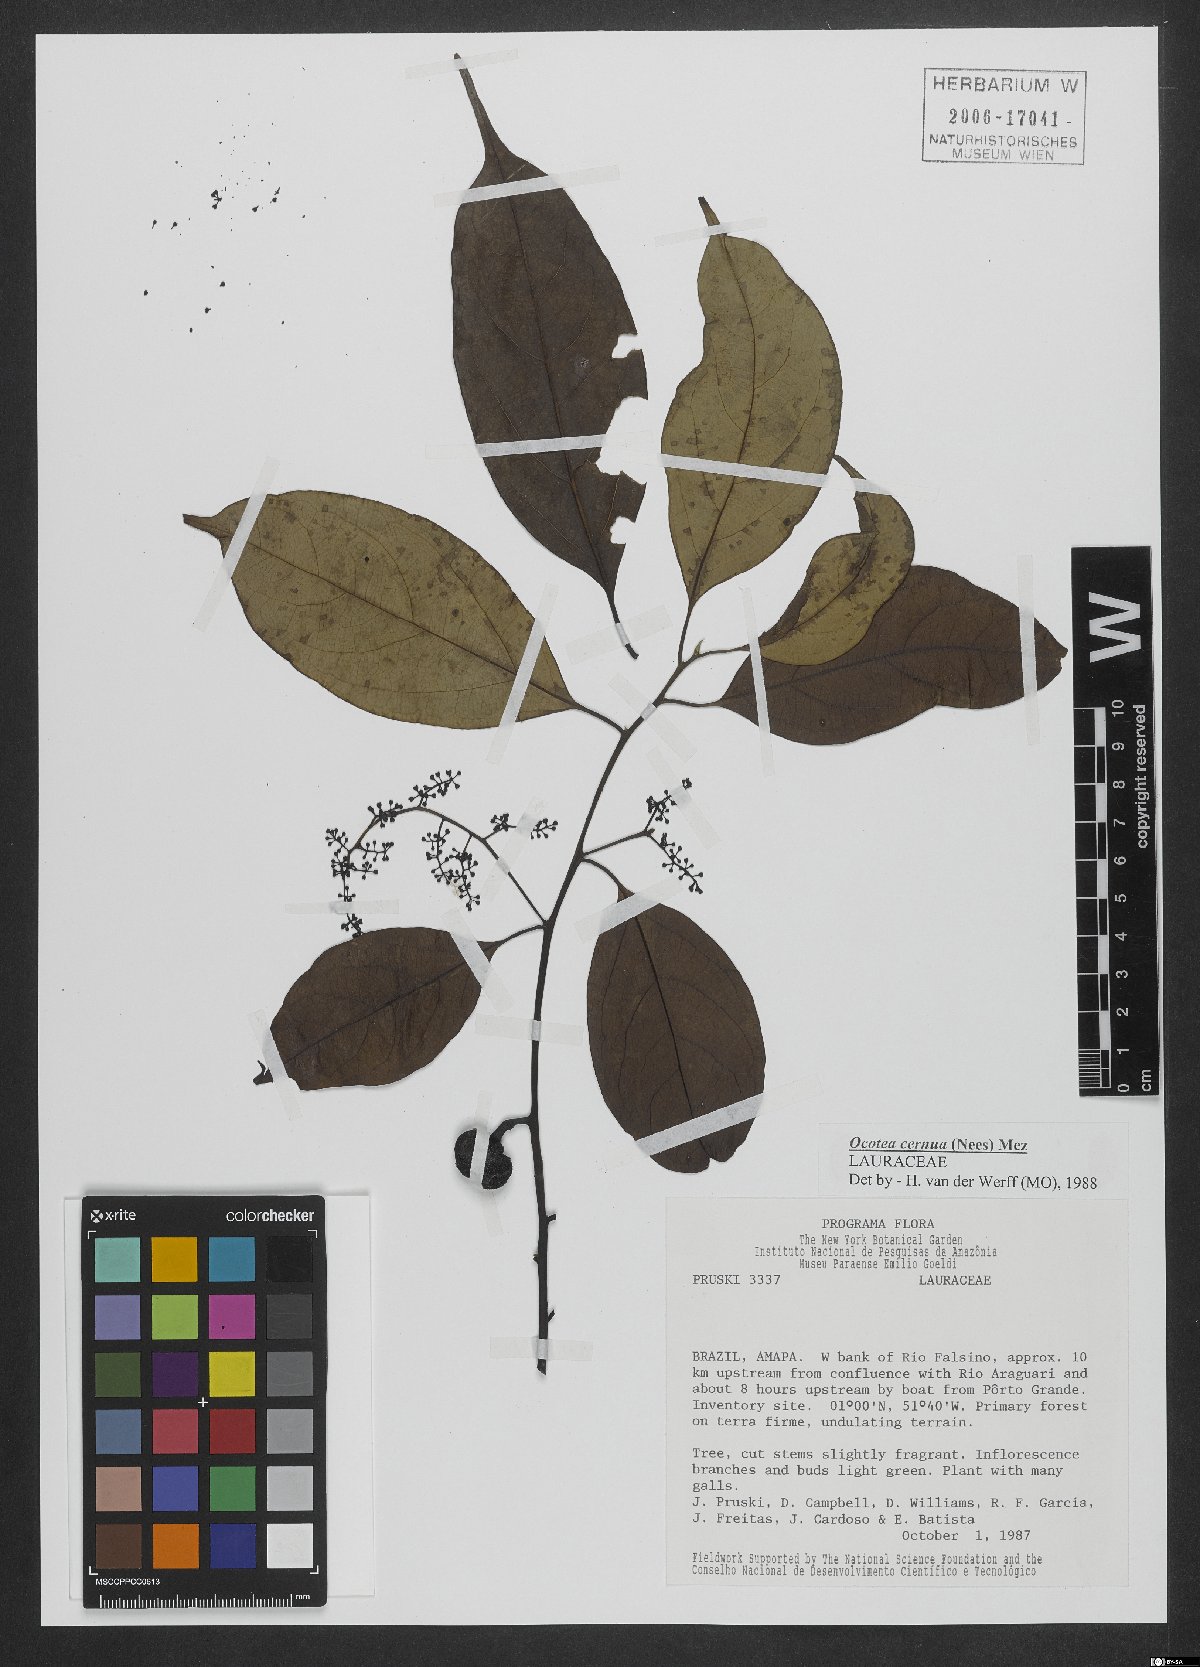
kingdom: Plantae
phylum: Tracheophyta
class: Magnoliopsida
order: Laurales
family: Lauraceae
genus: Ocotea
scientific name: Ocotea leptobotra
